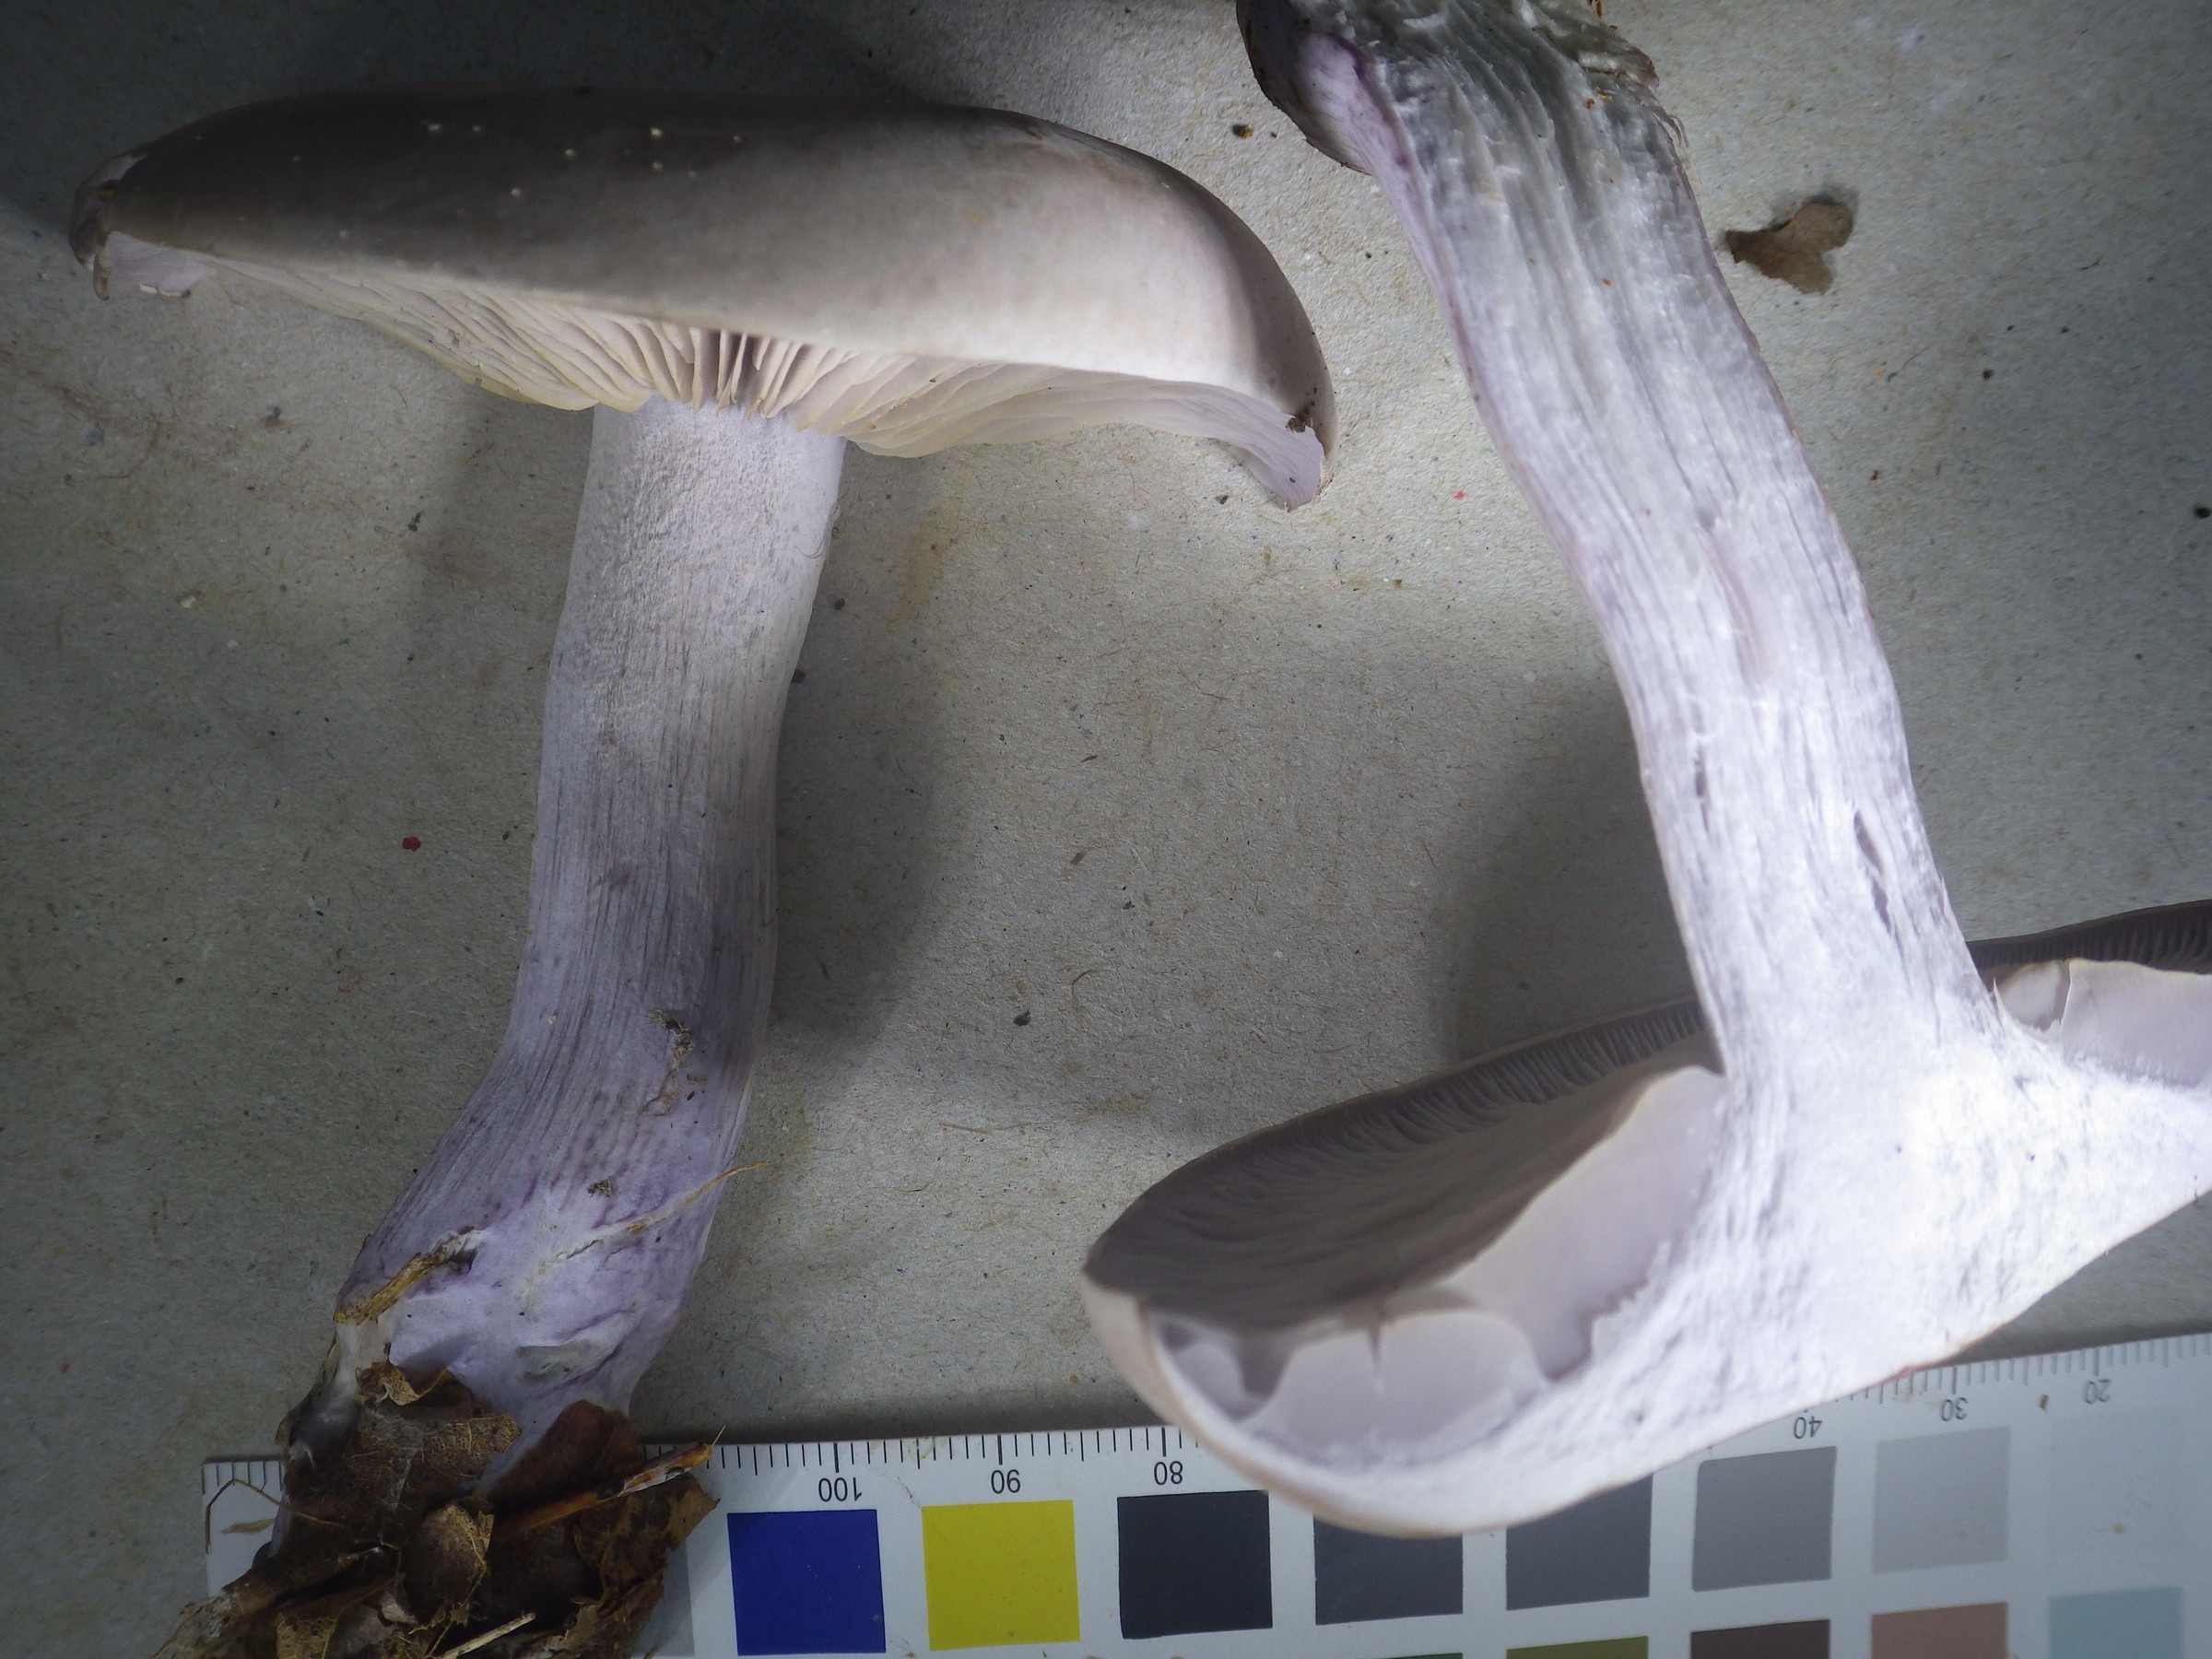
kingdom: Fungi
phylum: Basidiomycota
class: Agaricomycetes
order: Agaricales
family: Tricholomataceae
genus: Lepista
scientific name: Lepista nuda
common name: Wood blewit
